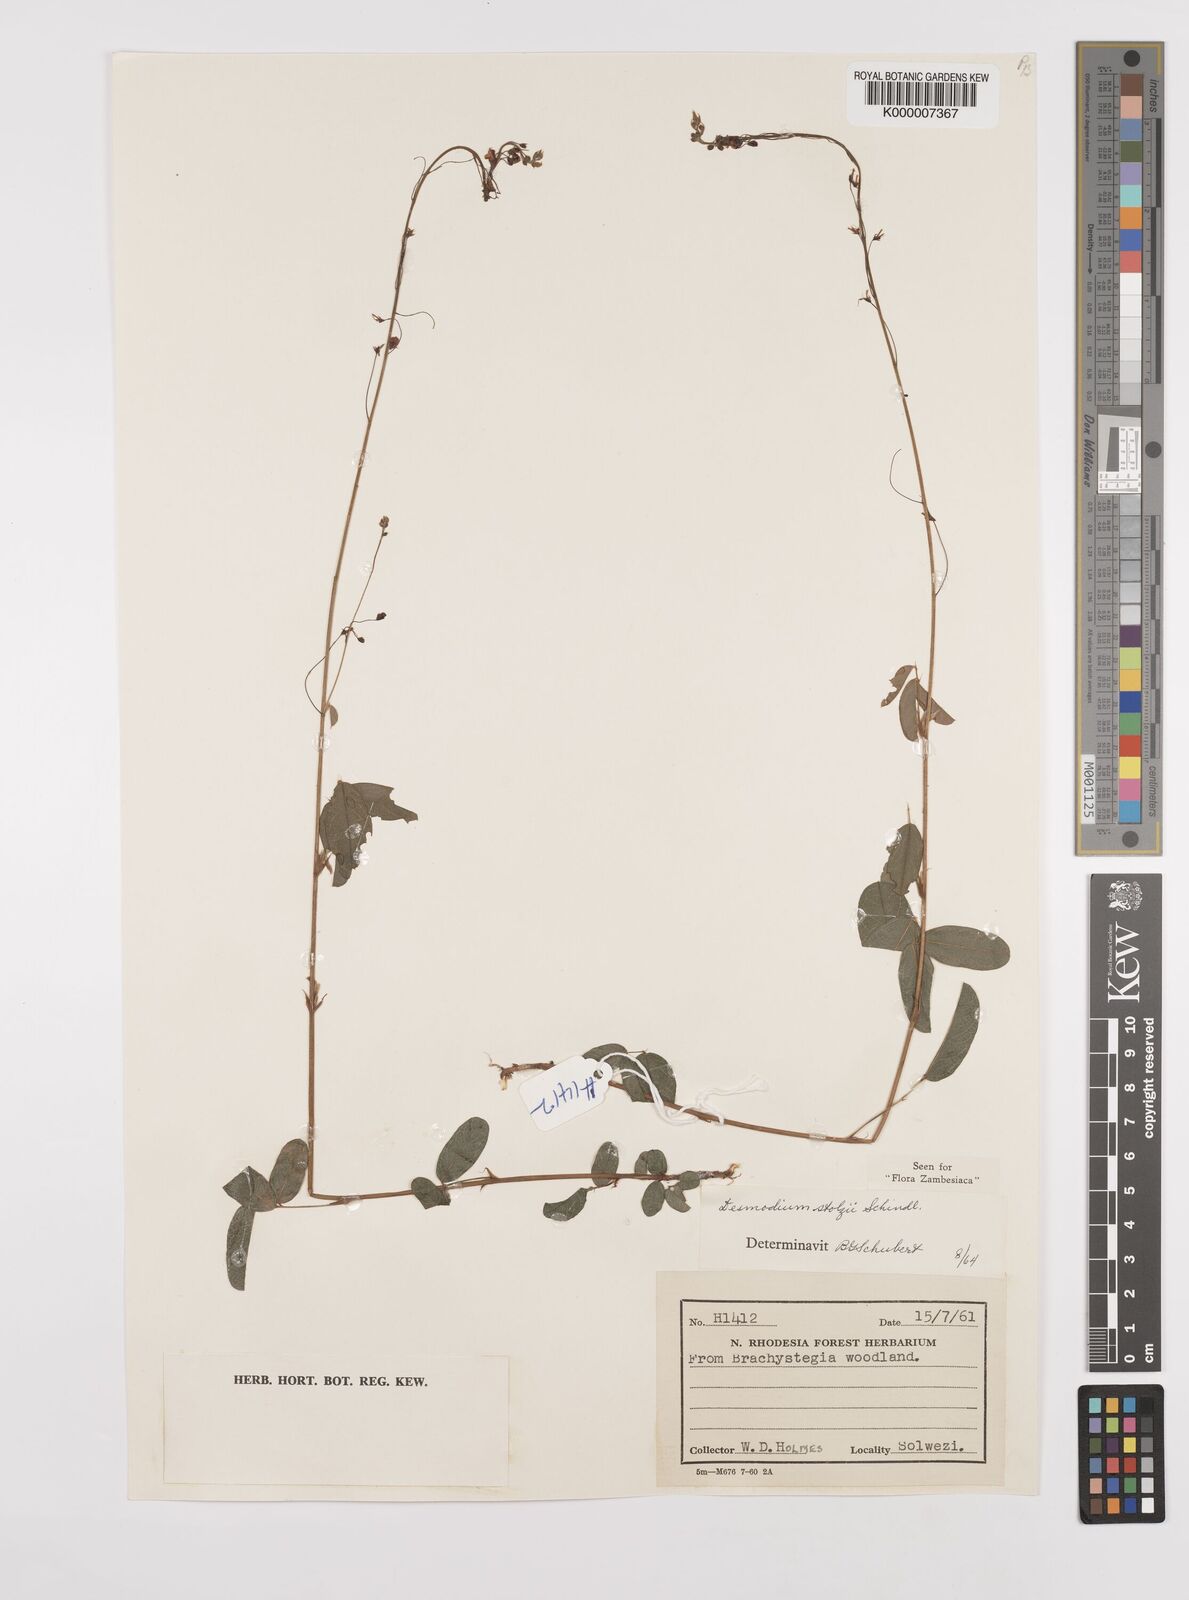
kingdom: Plantae
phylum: Tracheophyta
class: Magnoliopsida
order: Fabales
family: Fabaceae
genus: Grona
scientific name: Grona stolzii
